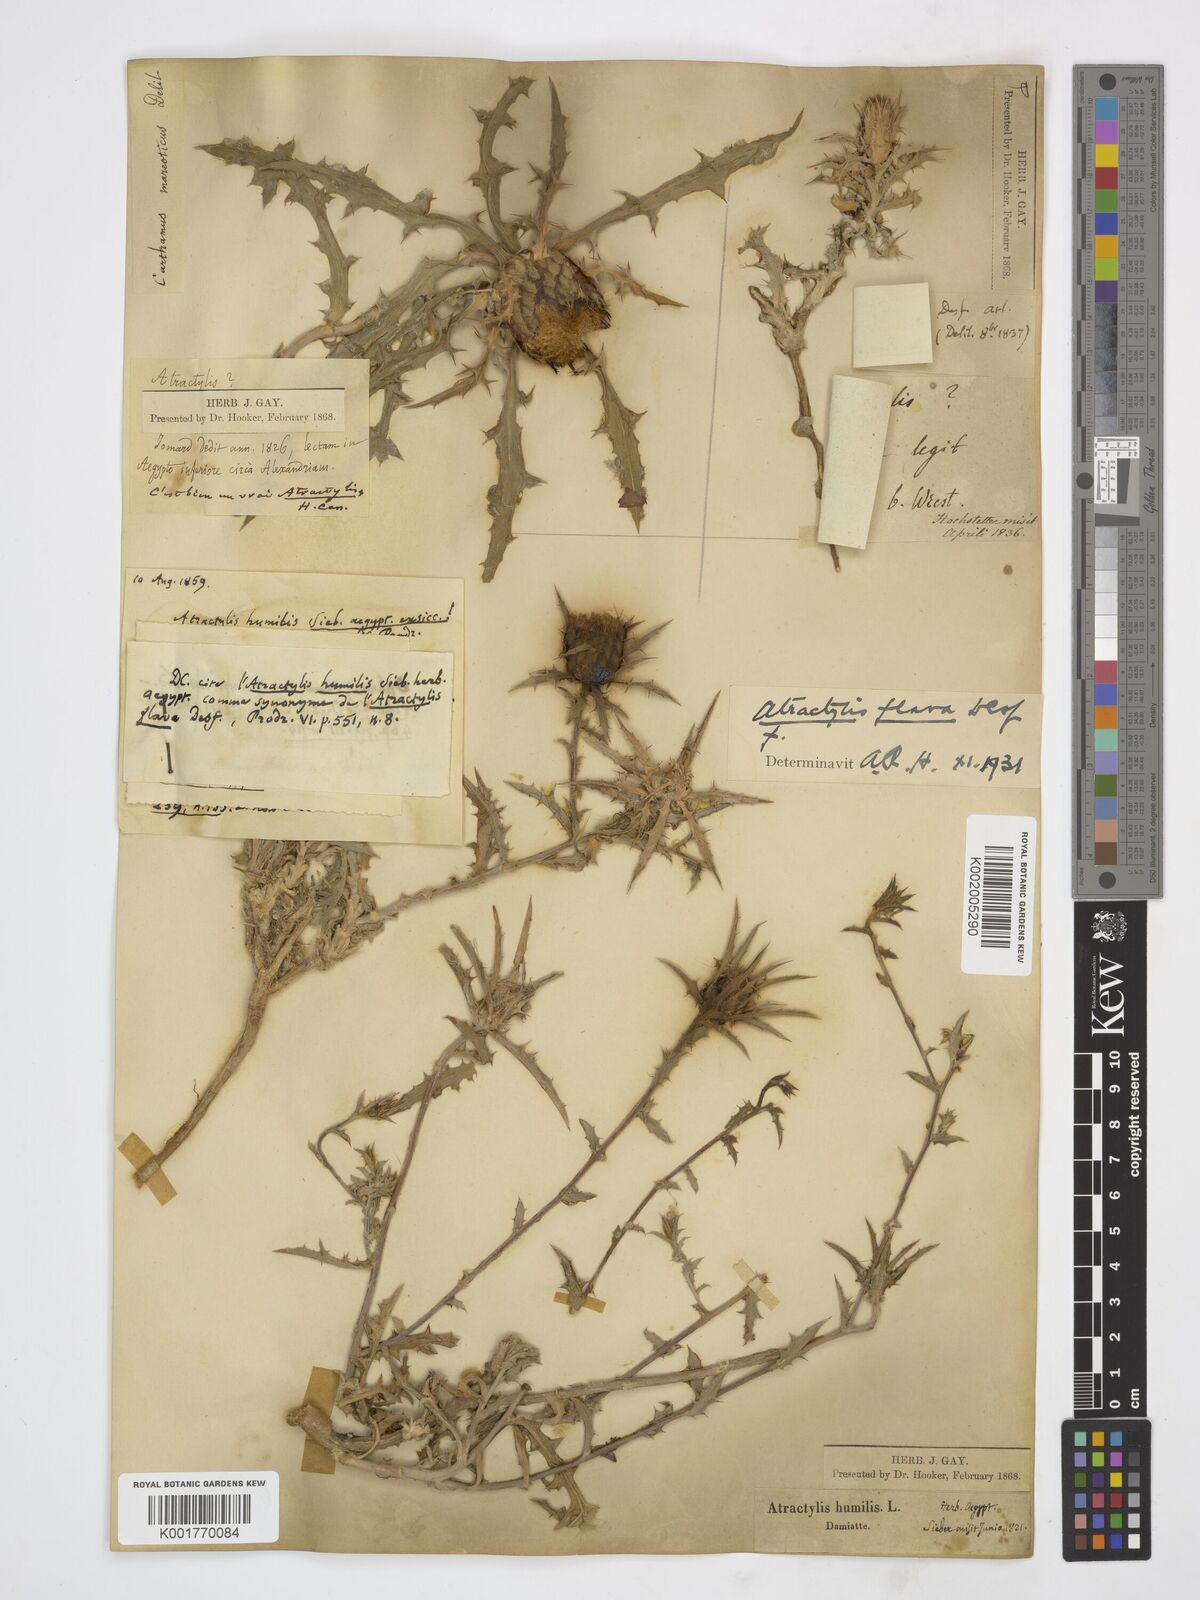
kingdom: Plantae
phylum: Tracheophyta
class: Magnoliopsida
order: Asterales
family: Asteraceae
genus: Atractylis
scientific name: Atractylis carduus
